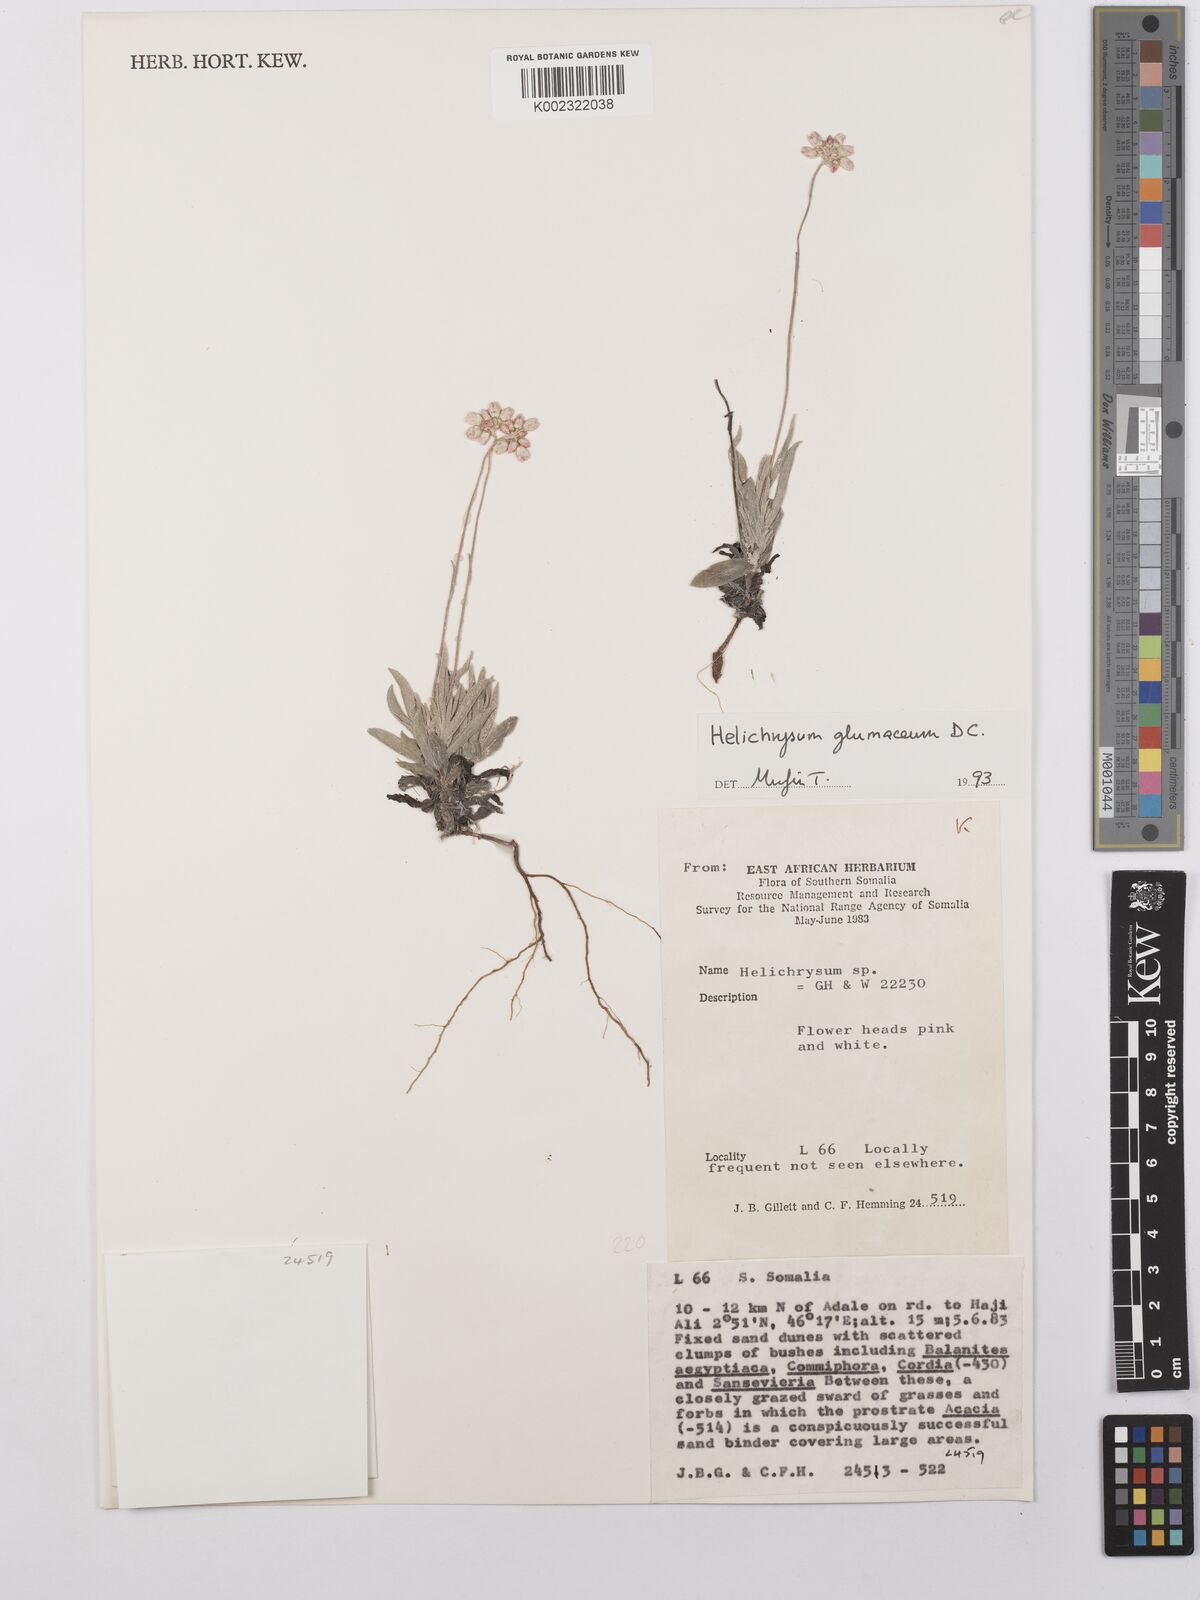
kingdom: Plantae
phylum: Tracheophyta
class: Magnoliopsida
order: Asterales
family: Asteraceae
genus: Helichrysum
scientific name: Helichrysum
